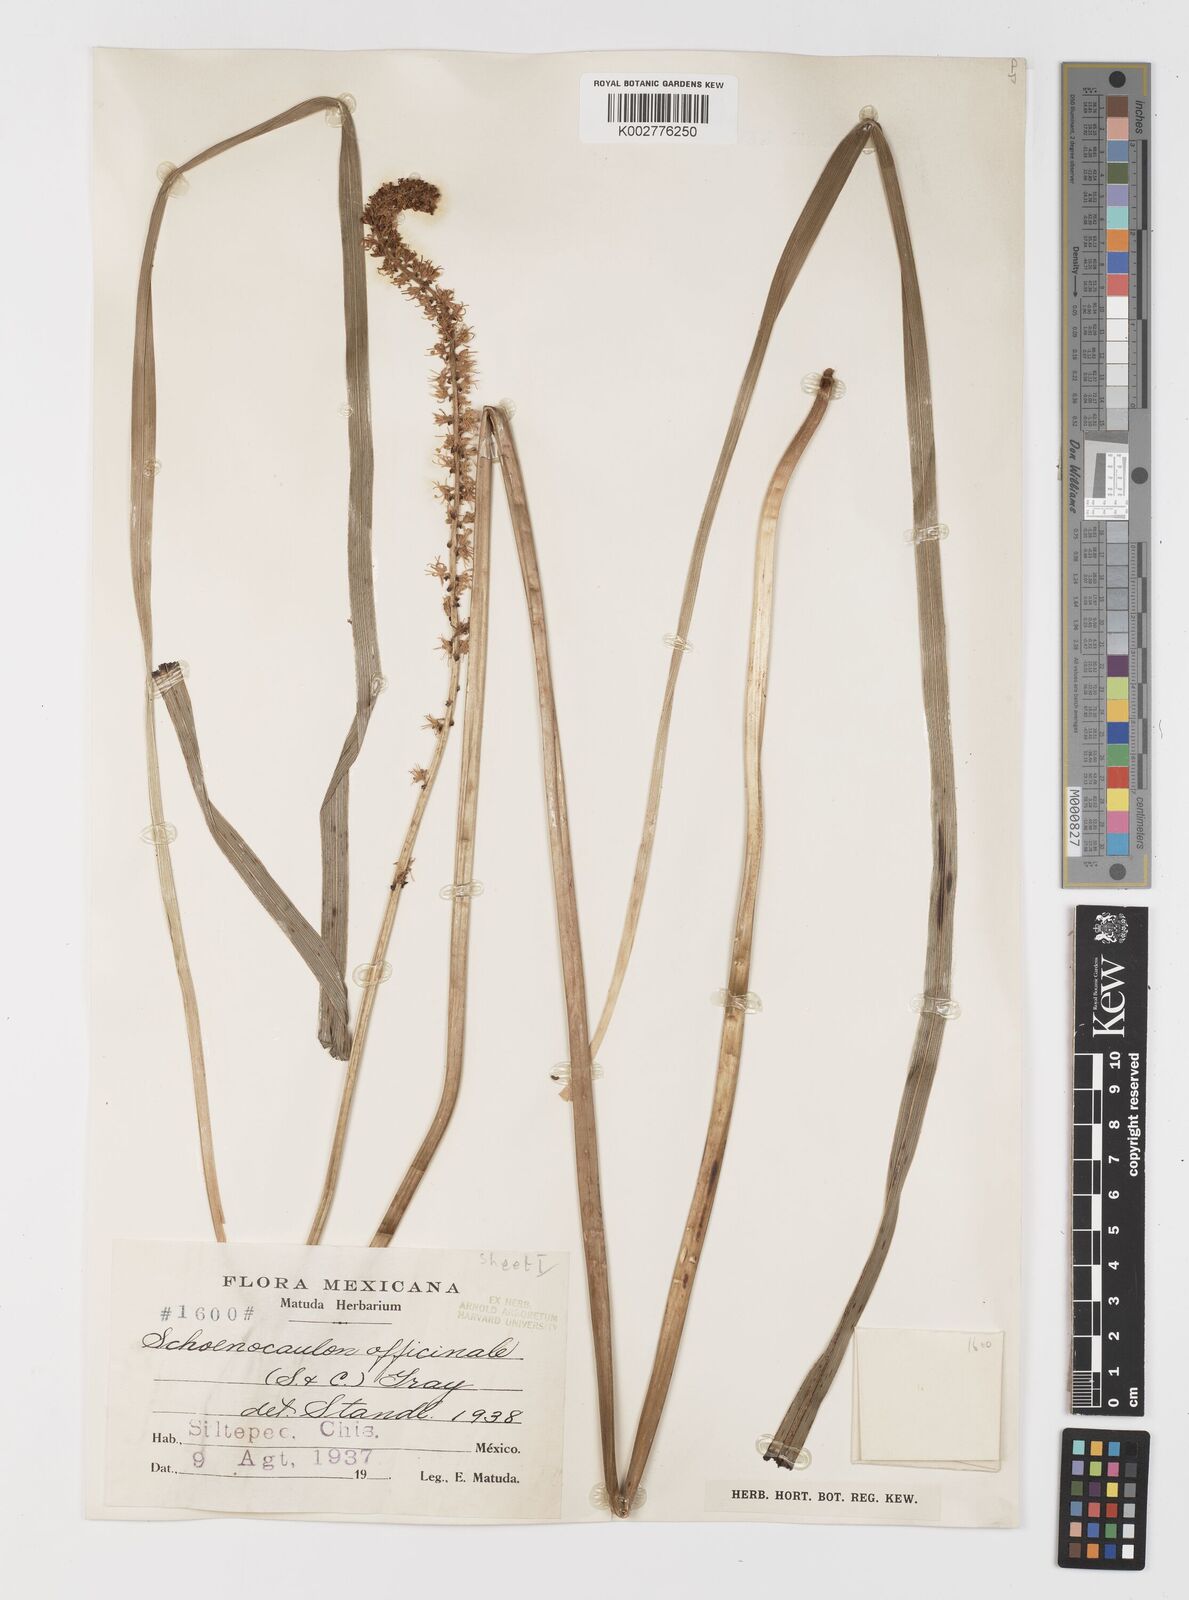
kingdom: Plantae
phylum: Tracheophyta
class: Liliopsida
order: Liliales
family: Melanthiaceae
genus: Schoenocaulon
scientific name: Schoenocaulon officinale
